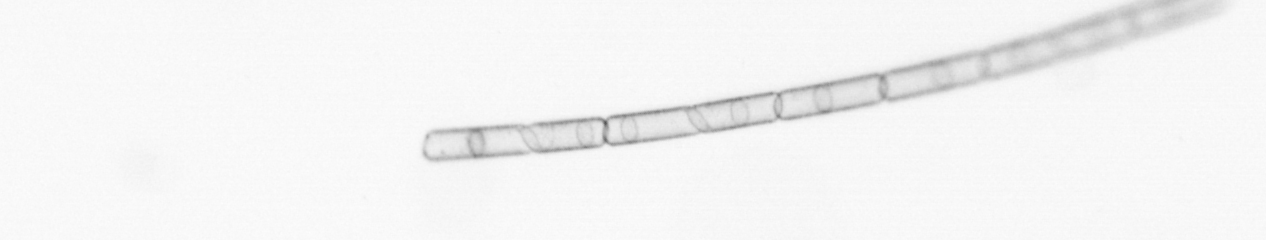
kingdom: Chromista
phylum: Ochrophyta
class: Bacillariophyceae
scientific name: Bacillariophyceae
